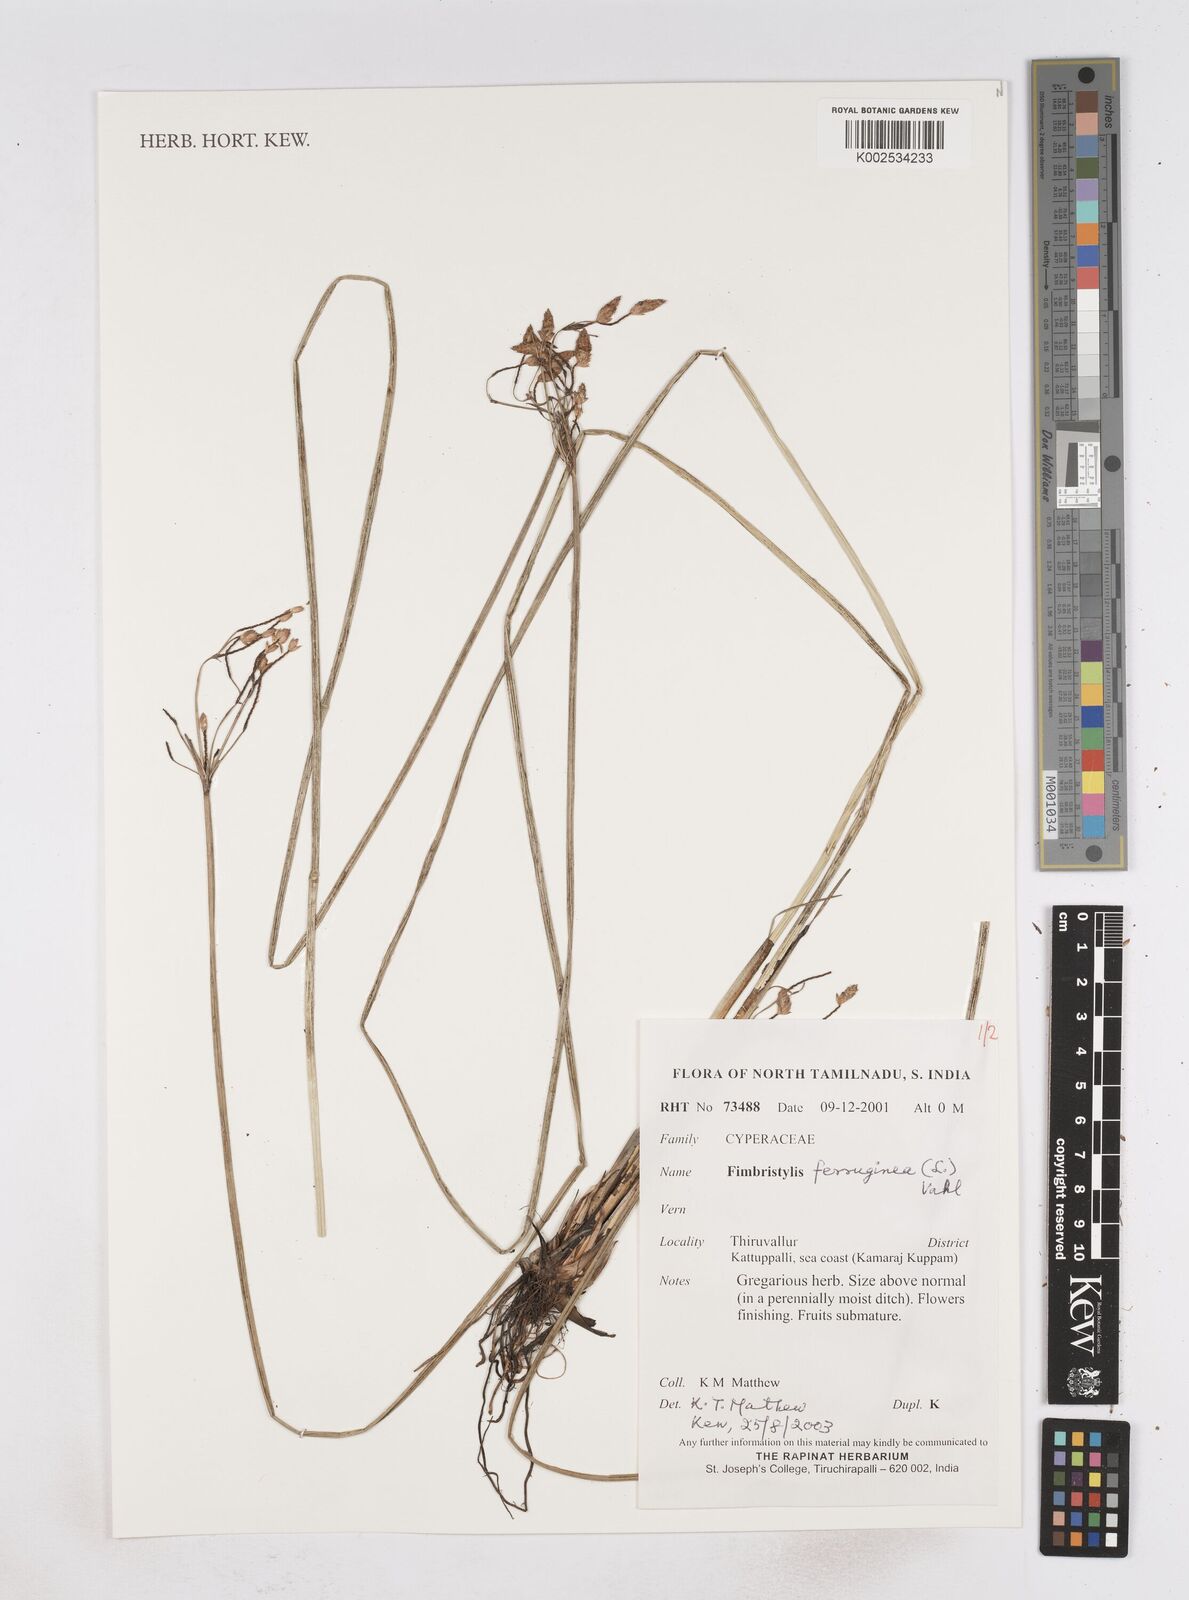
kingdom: Plantae
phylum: Tracheophyta
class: Liliopsida
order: Poales
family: Cyperaceae
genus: Fimbristylis
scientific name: Fimbristylis ferruginea
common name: West indian fimbry
